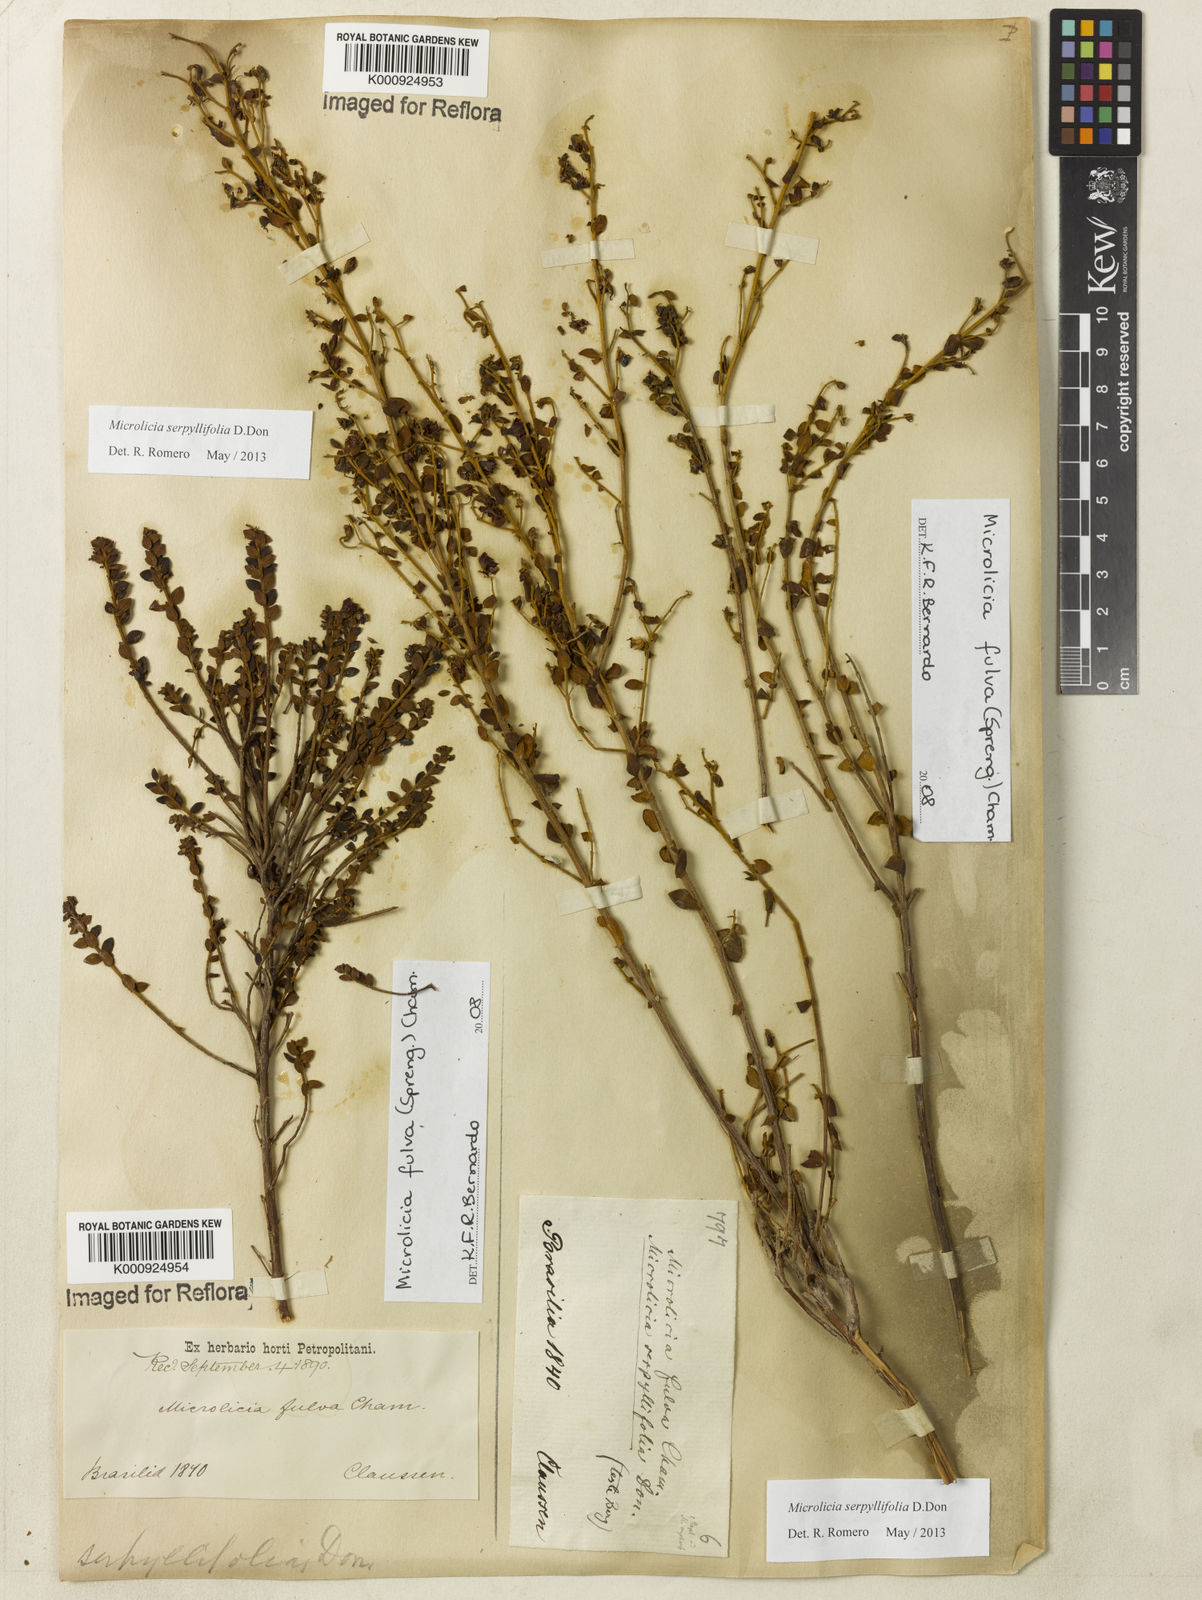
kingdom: Plantae
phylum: Tracheophyta
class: Magnoliopsida
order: Myrtales
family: Melastomataceae
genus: Microlicia
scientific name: Microlicia fulva
